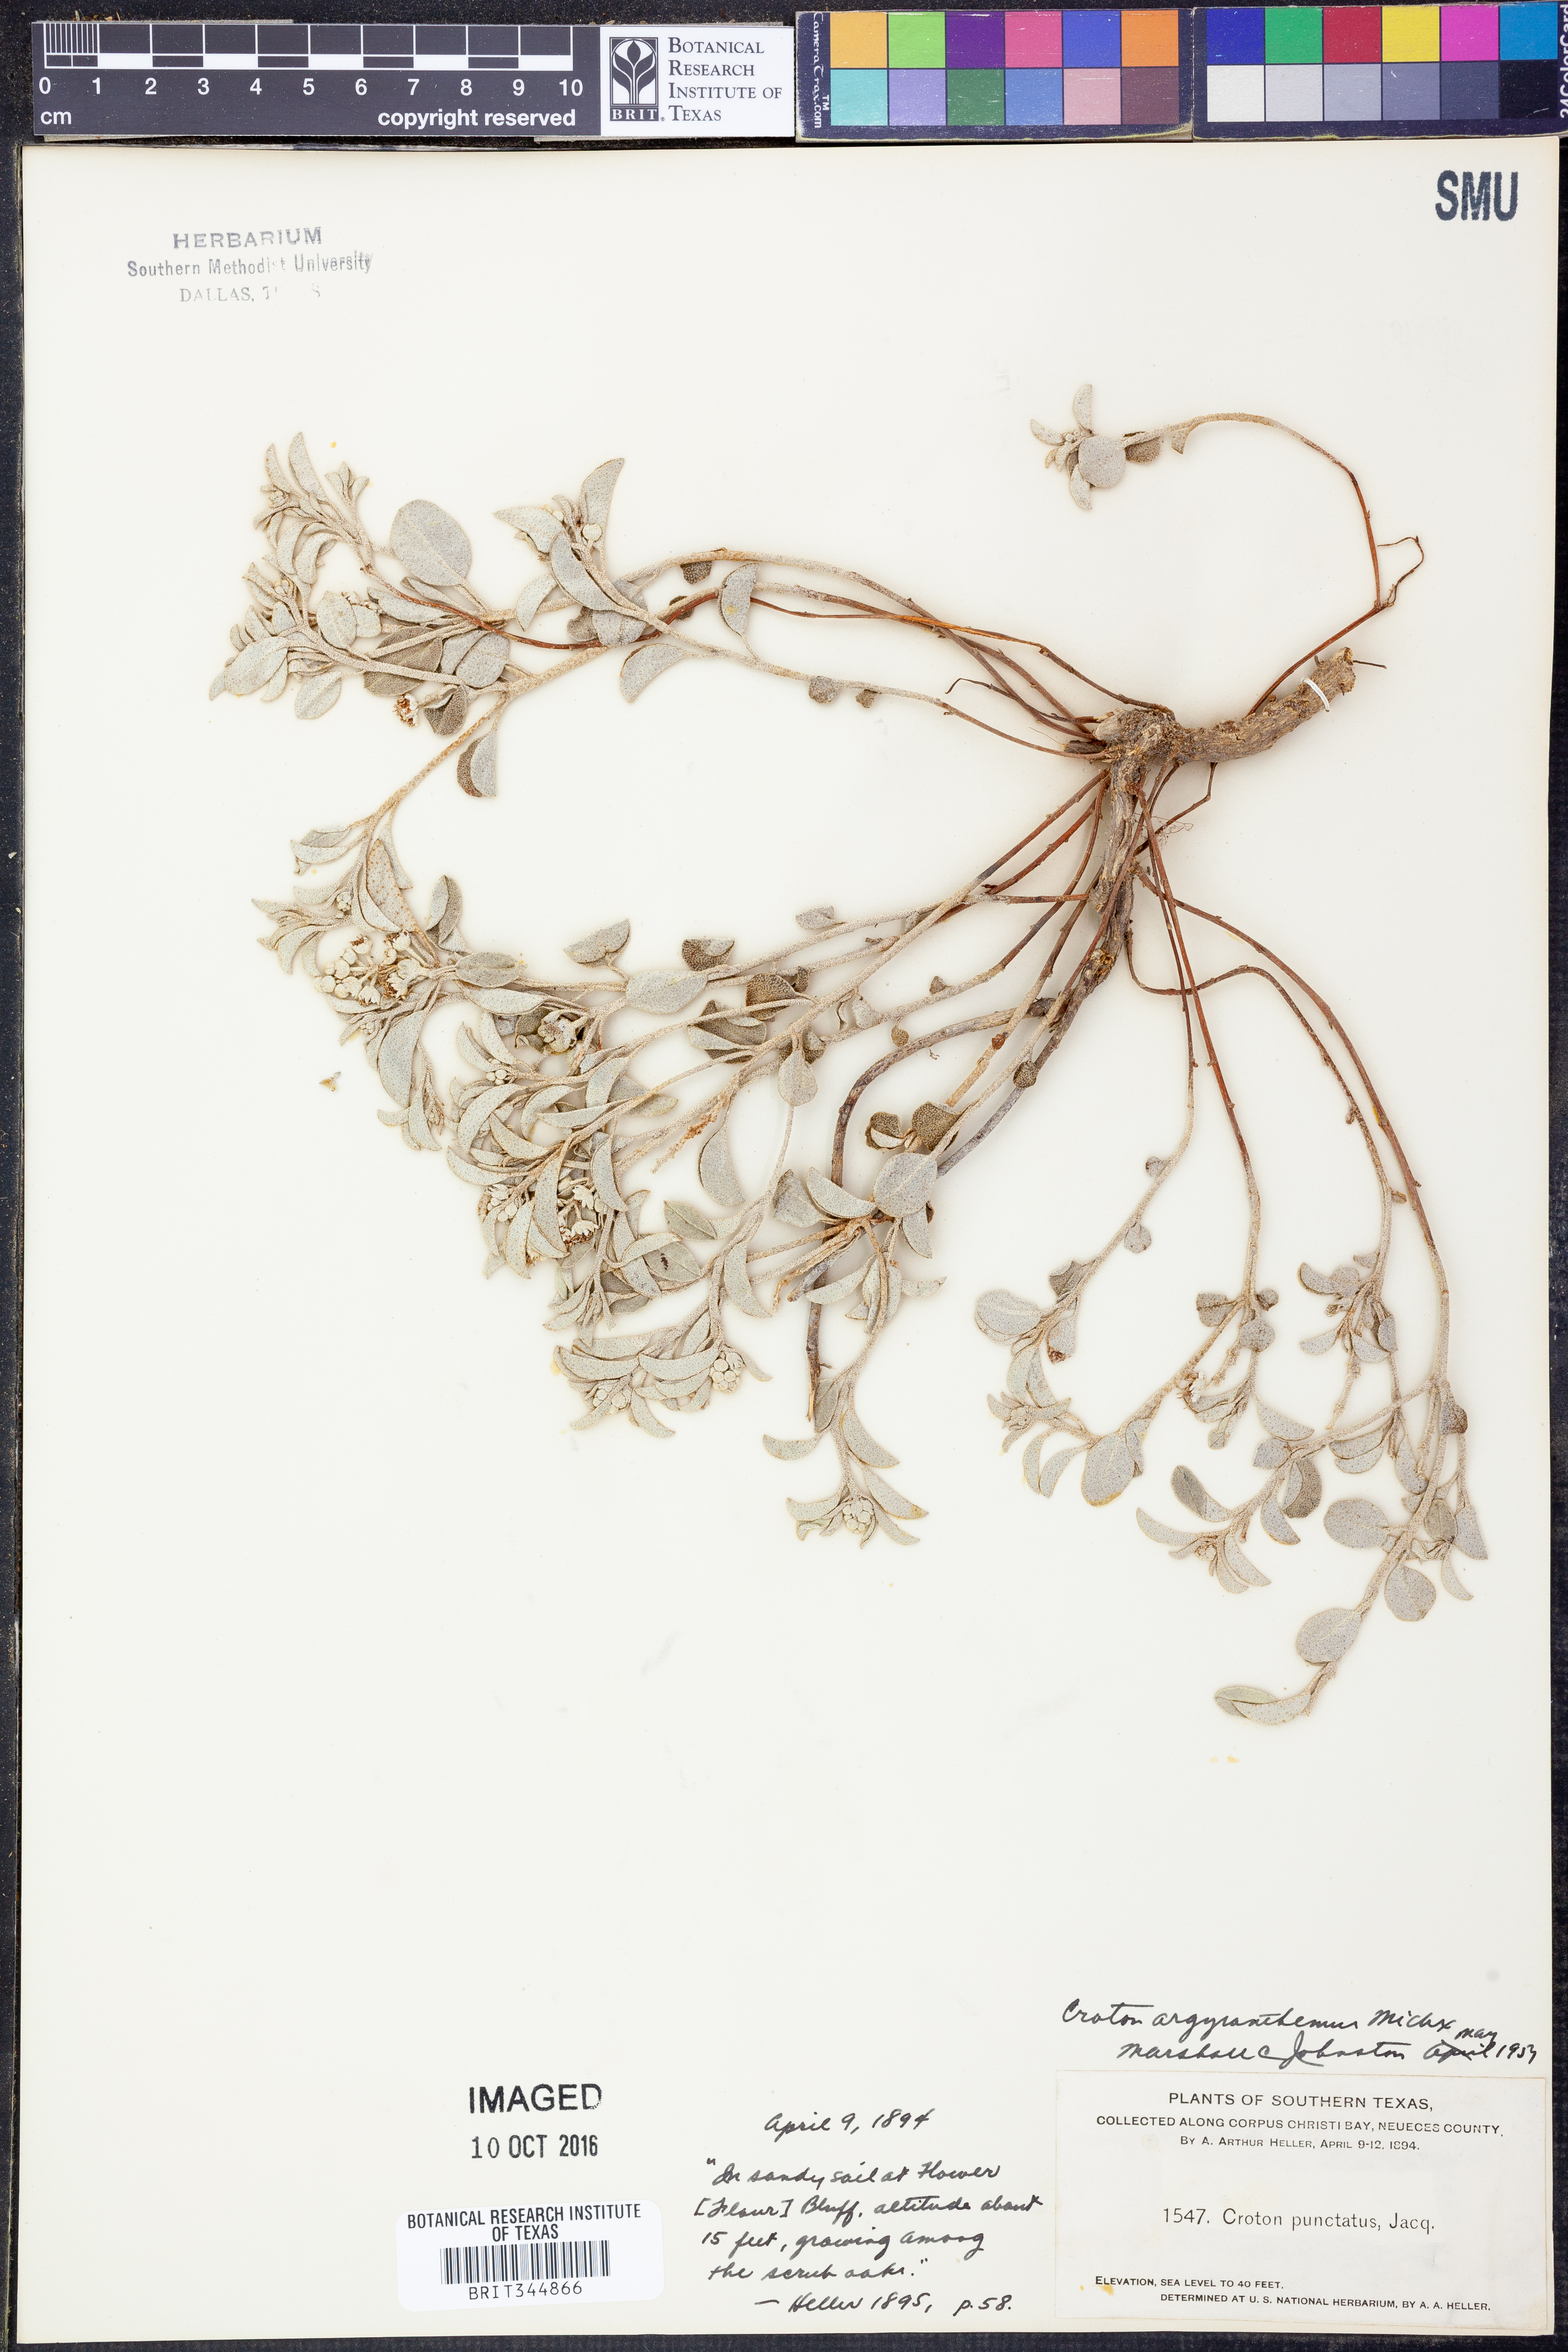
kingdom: Plantae
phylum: Tracheophyta
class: Magnoliopsida
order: Malpighiales
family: Euphorbiaceae
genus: Croton
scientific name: Croton argyranthemus
